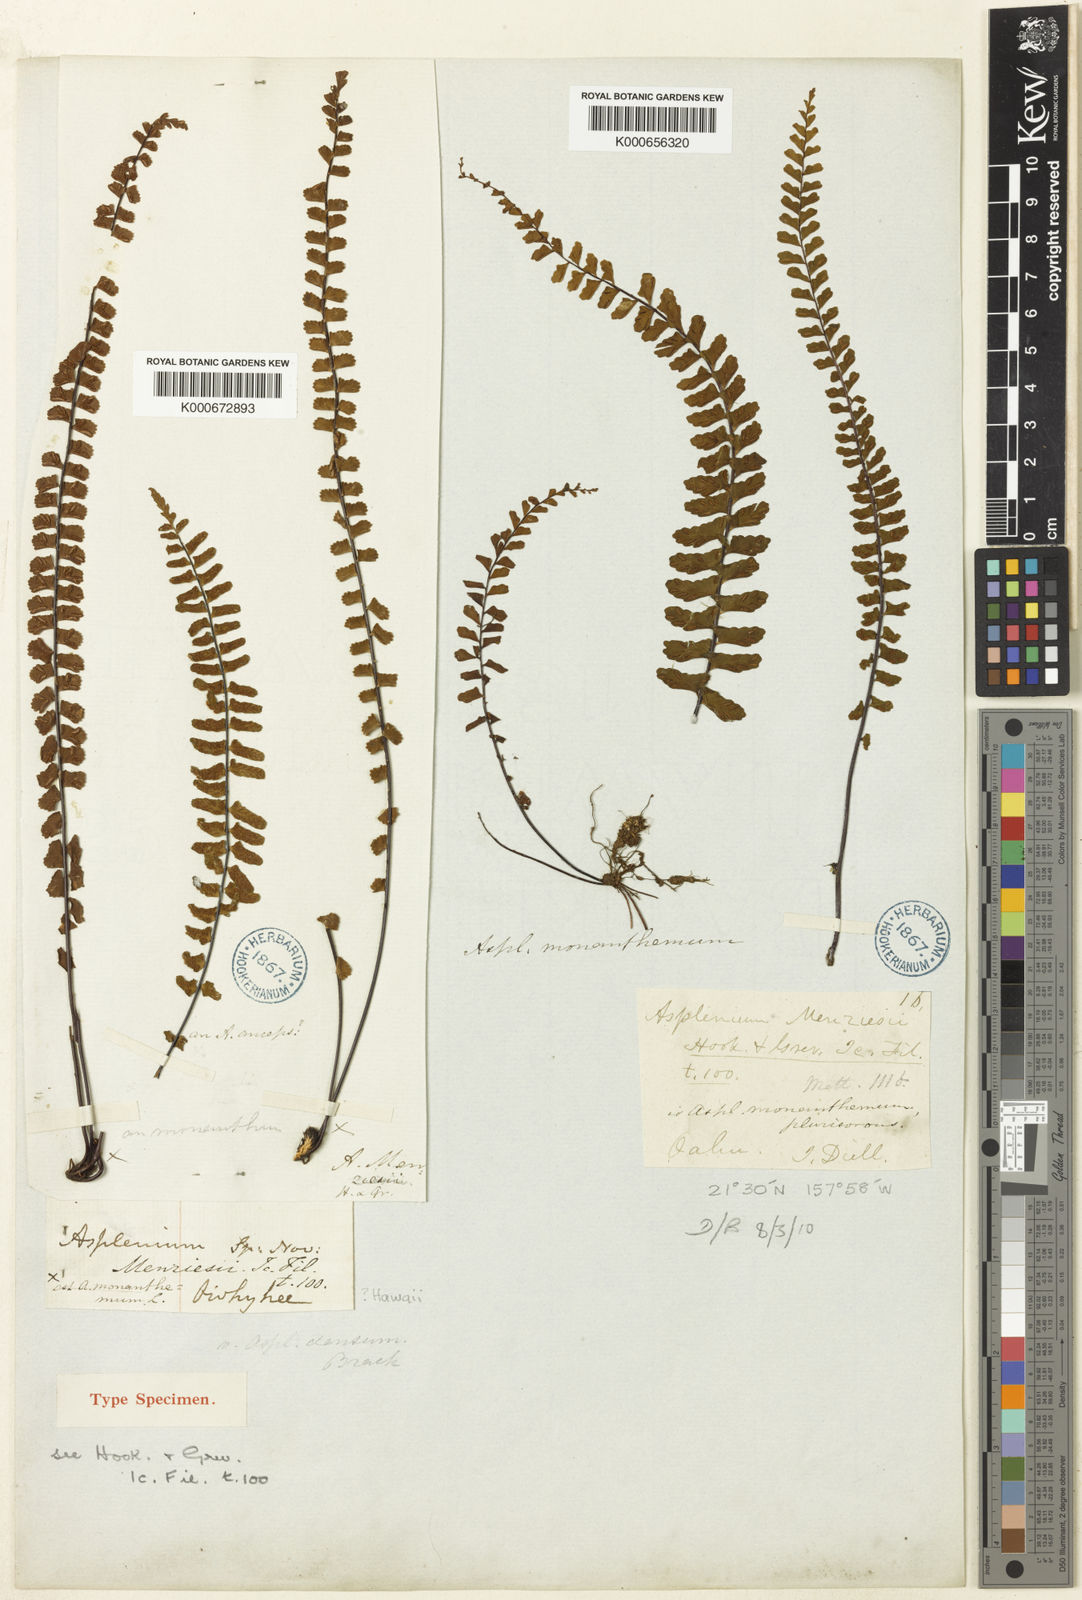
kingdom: Plantae
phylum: Tracheophyta
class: Polypodiopsida
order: Polypodiales
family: Aspleniaceae
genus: Asplenium
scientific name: Asplenium monanthes
